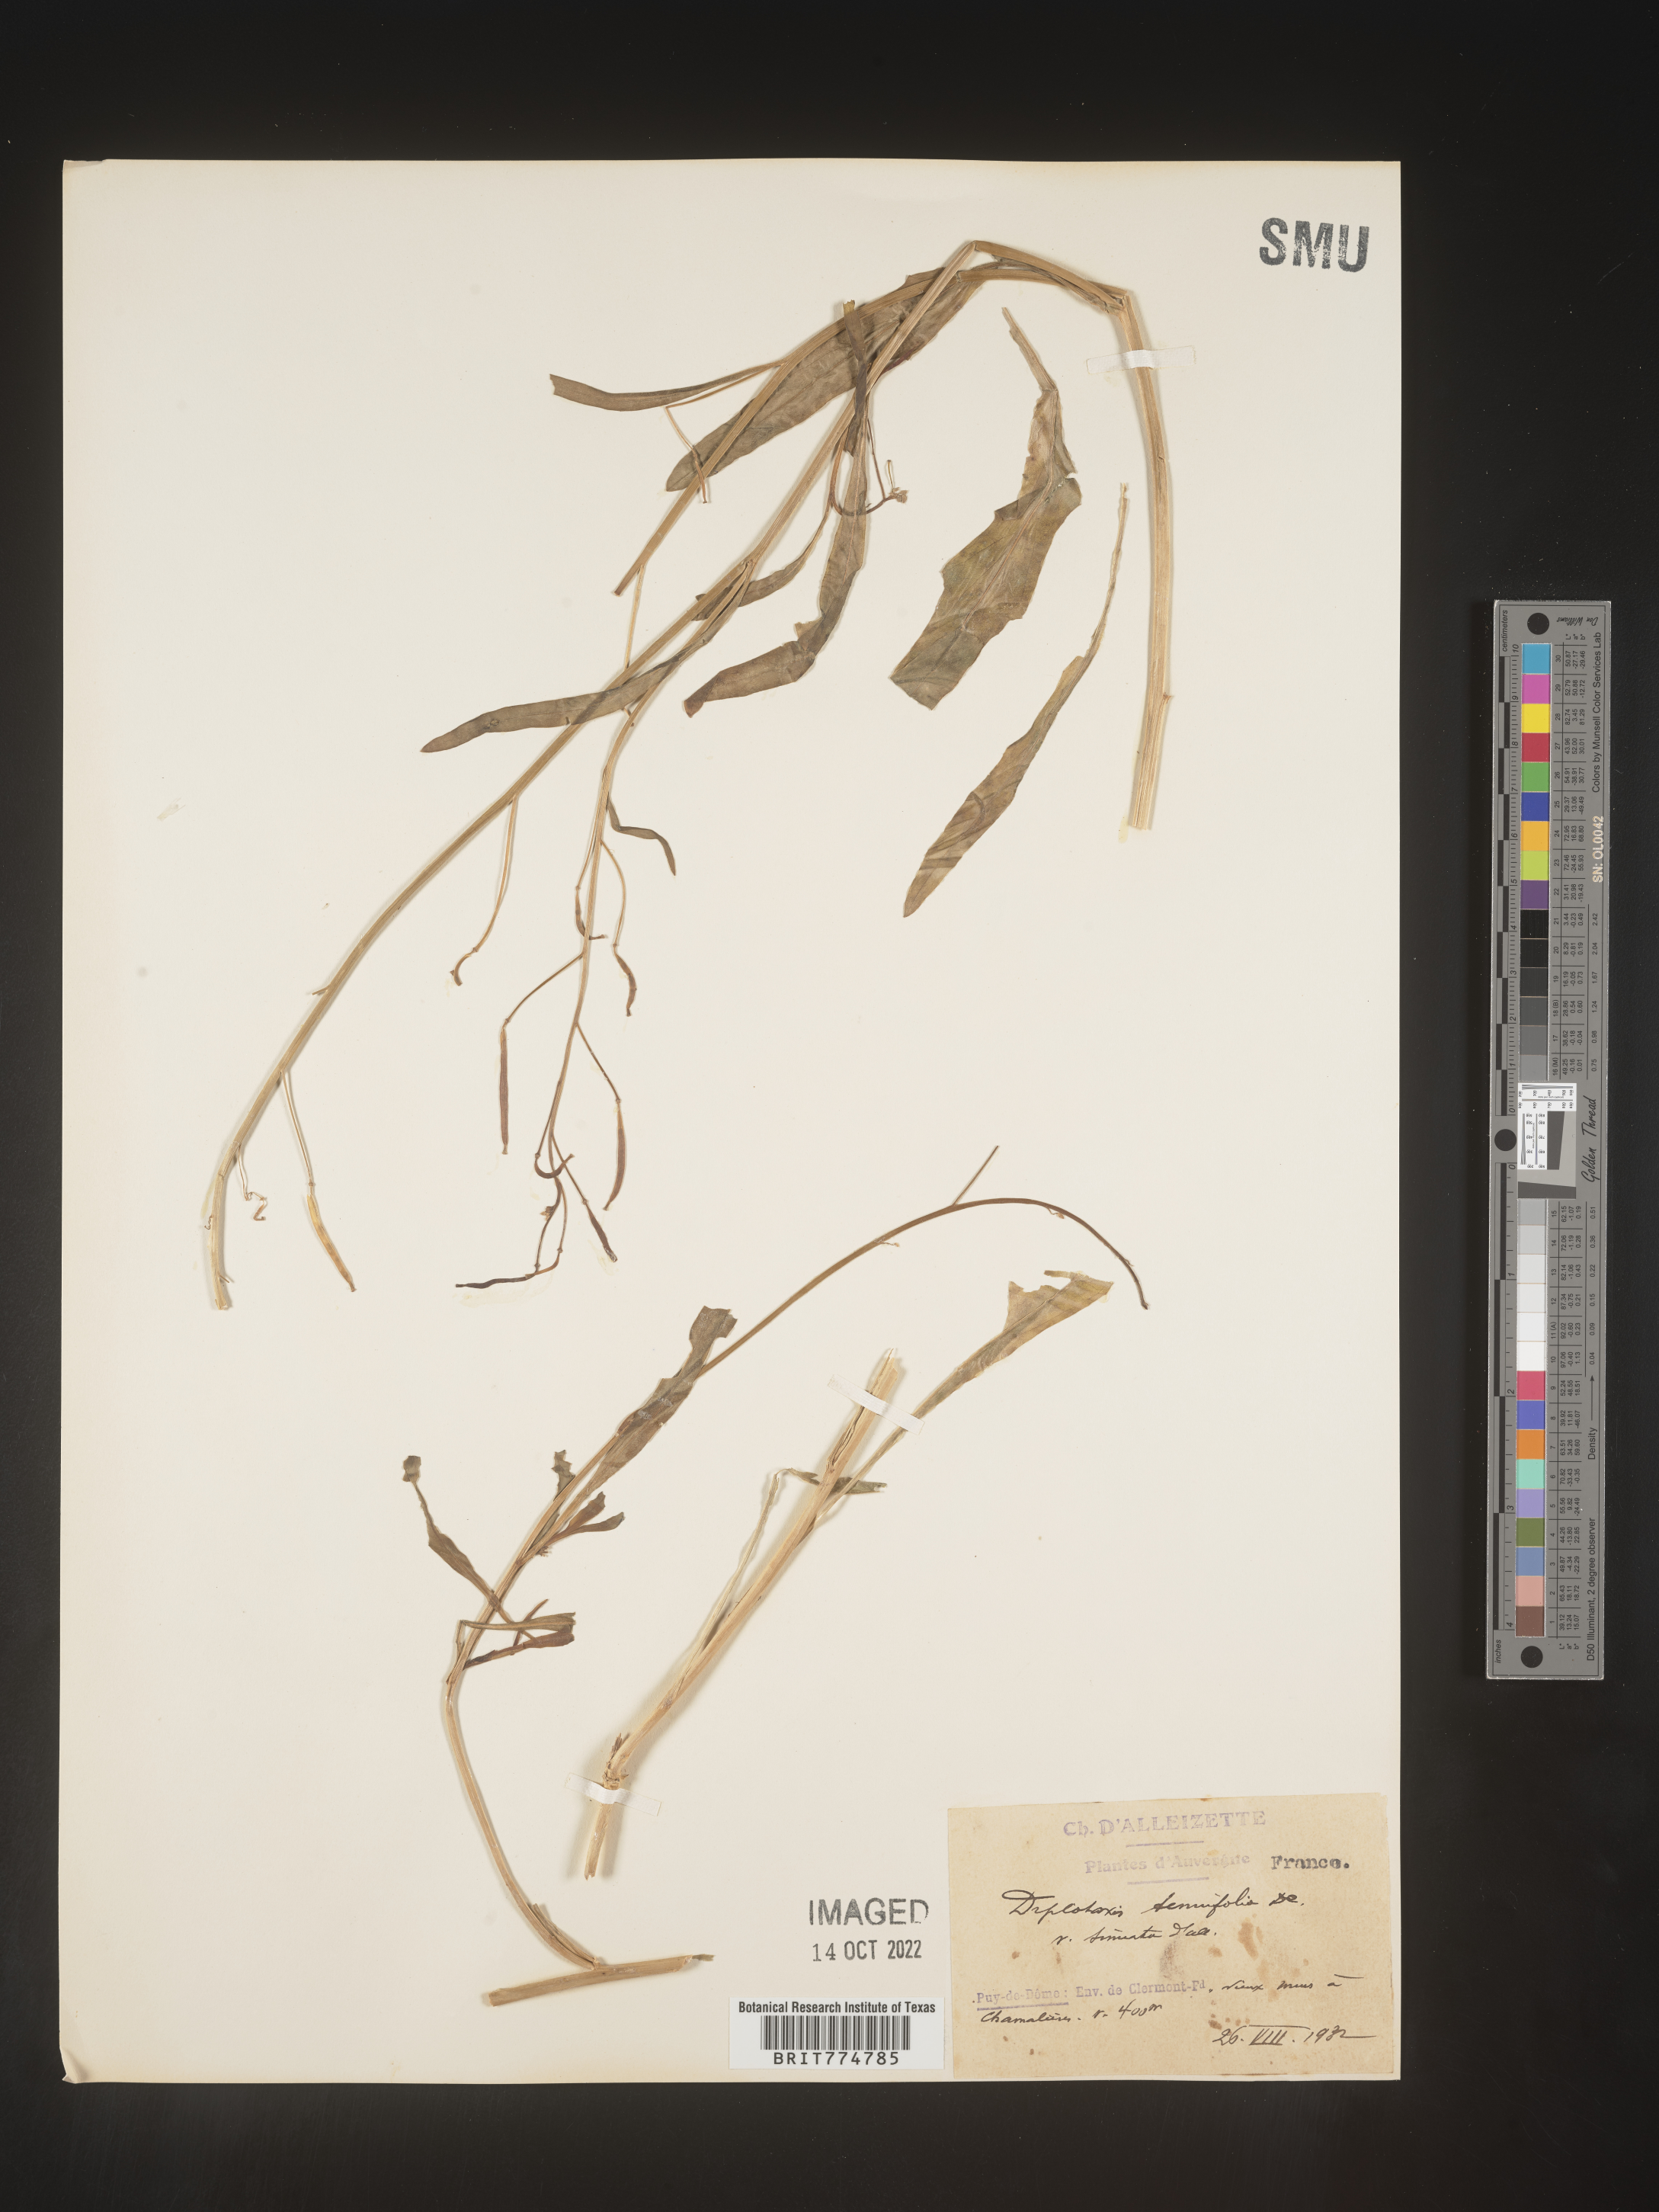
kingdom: Plantae
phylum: Tracheophyta
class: Magnoliopsida
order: Brassicales
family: Brassicaceae
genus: Diplotaxis
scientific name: Diplotaxis
